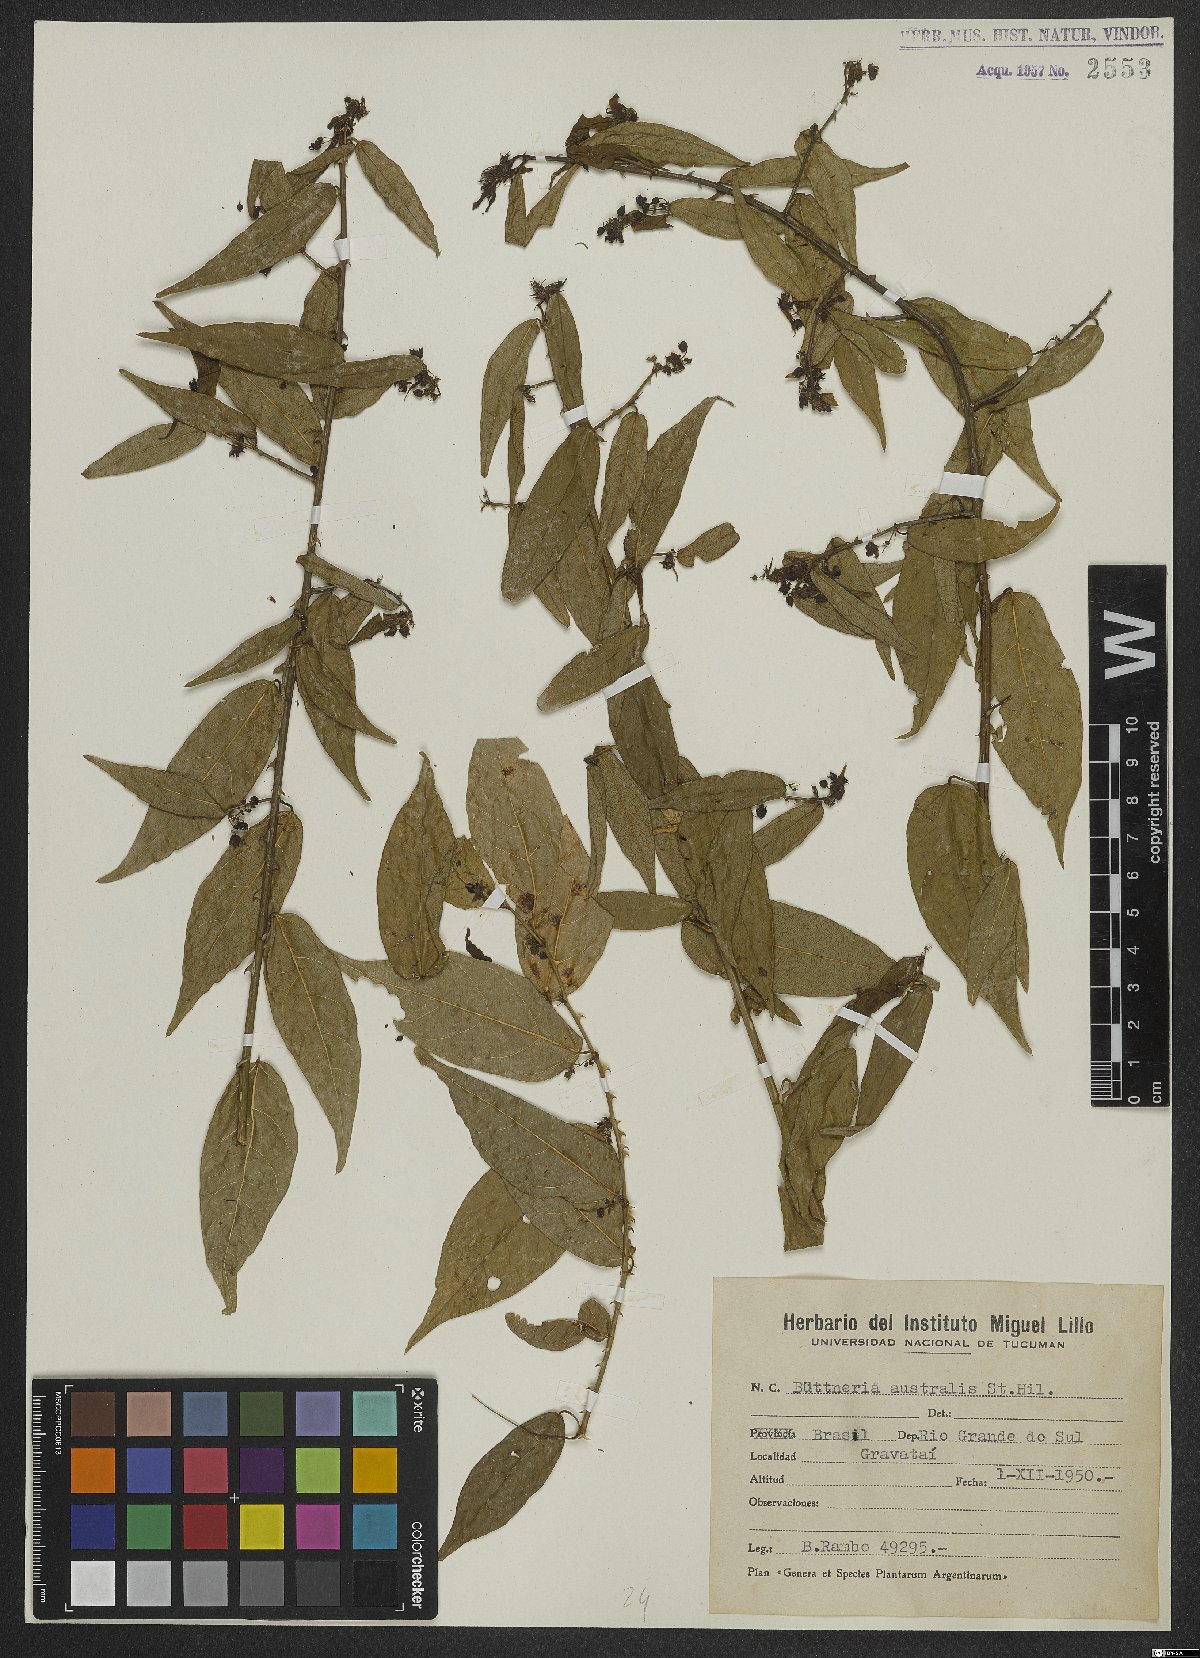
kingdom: Plantae
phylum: Tracheophyta
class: Magnoliopsida
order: Malvales
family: Malvaceae
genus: Byttneria
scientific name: Byttneria australis
